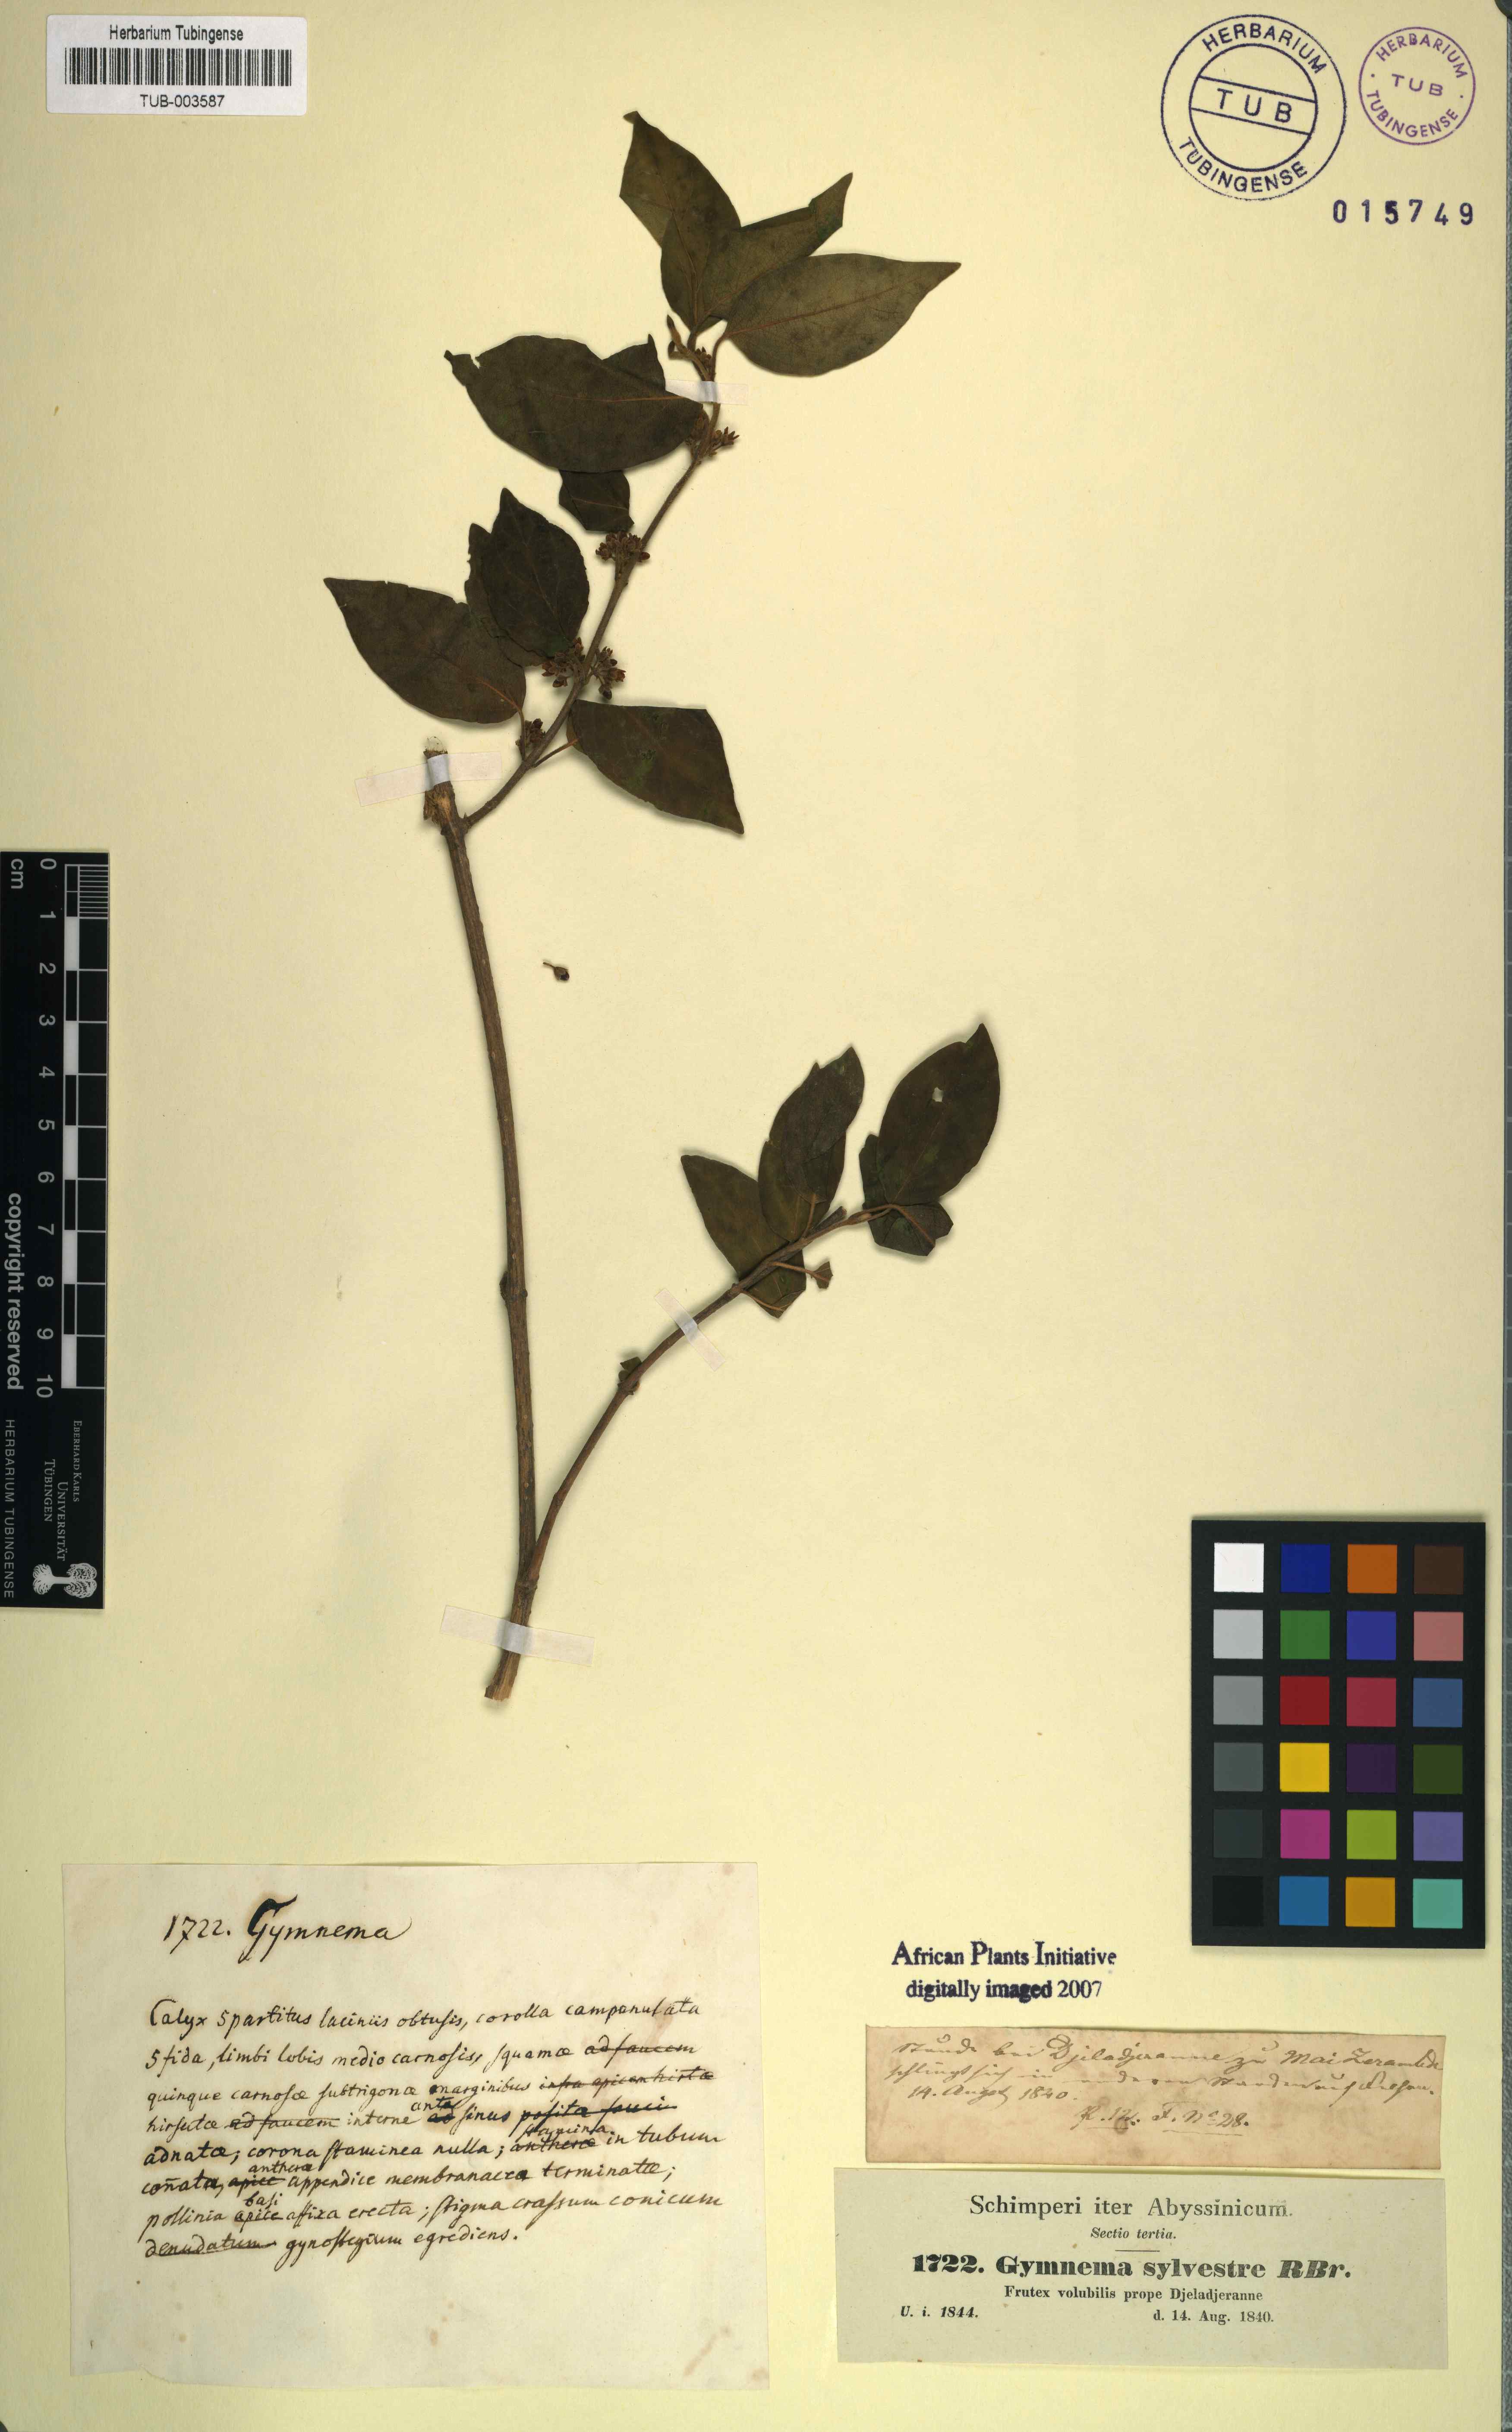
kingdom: Plantae
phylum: Tracheophyta
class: Magnoliopsida
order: Gentianales
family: Apocynaceae
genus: Gymnema
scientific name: Gymnema sylvestre
